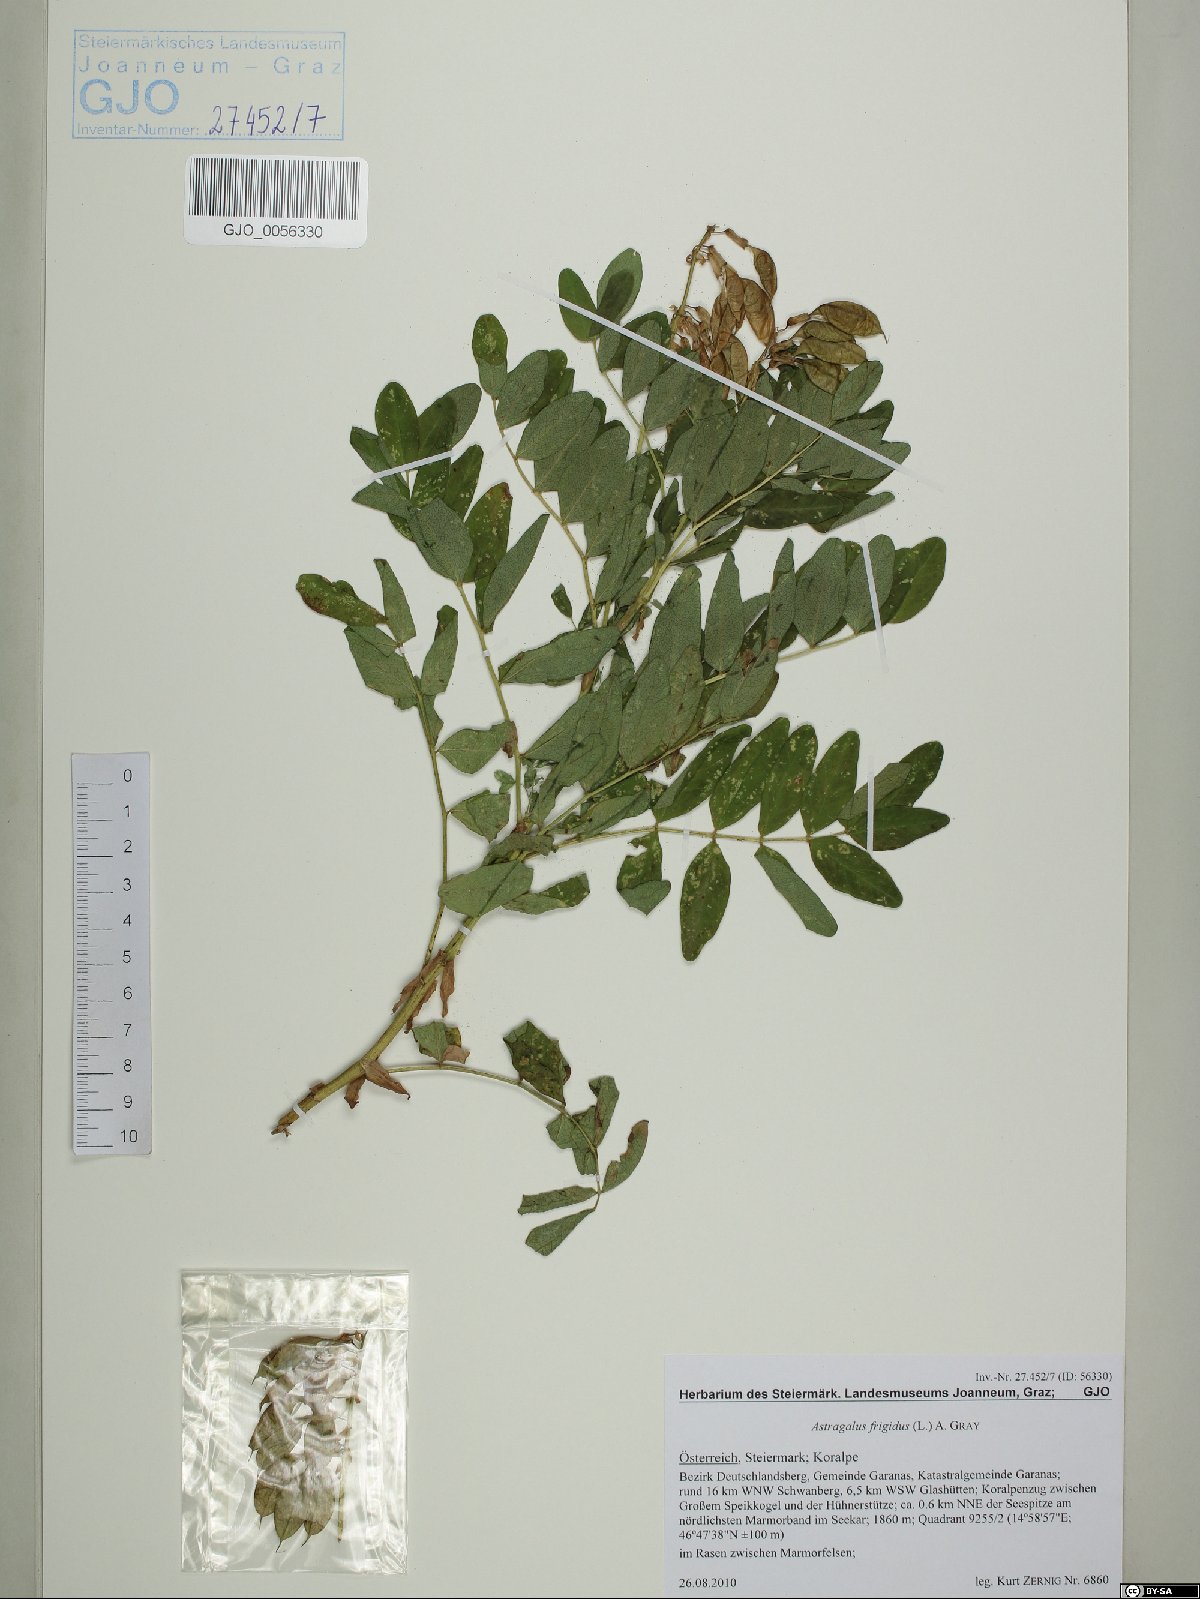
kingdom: Plantae
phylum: Tracheophyta
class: Magnoliopsida
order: Fabales
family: Fabaceae
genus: Astragalus
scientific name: Astragalus frigidus
